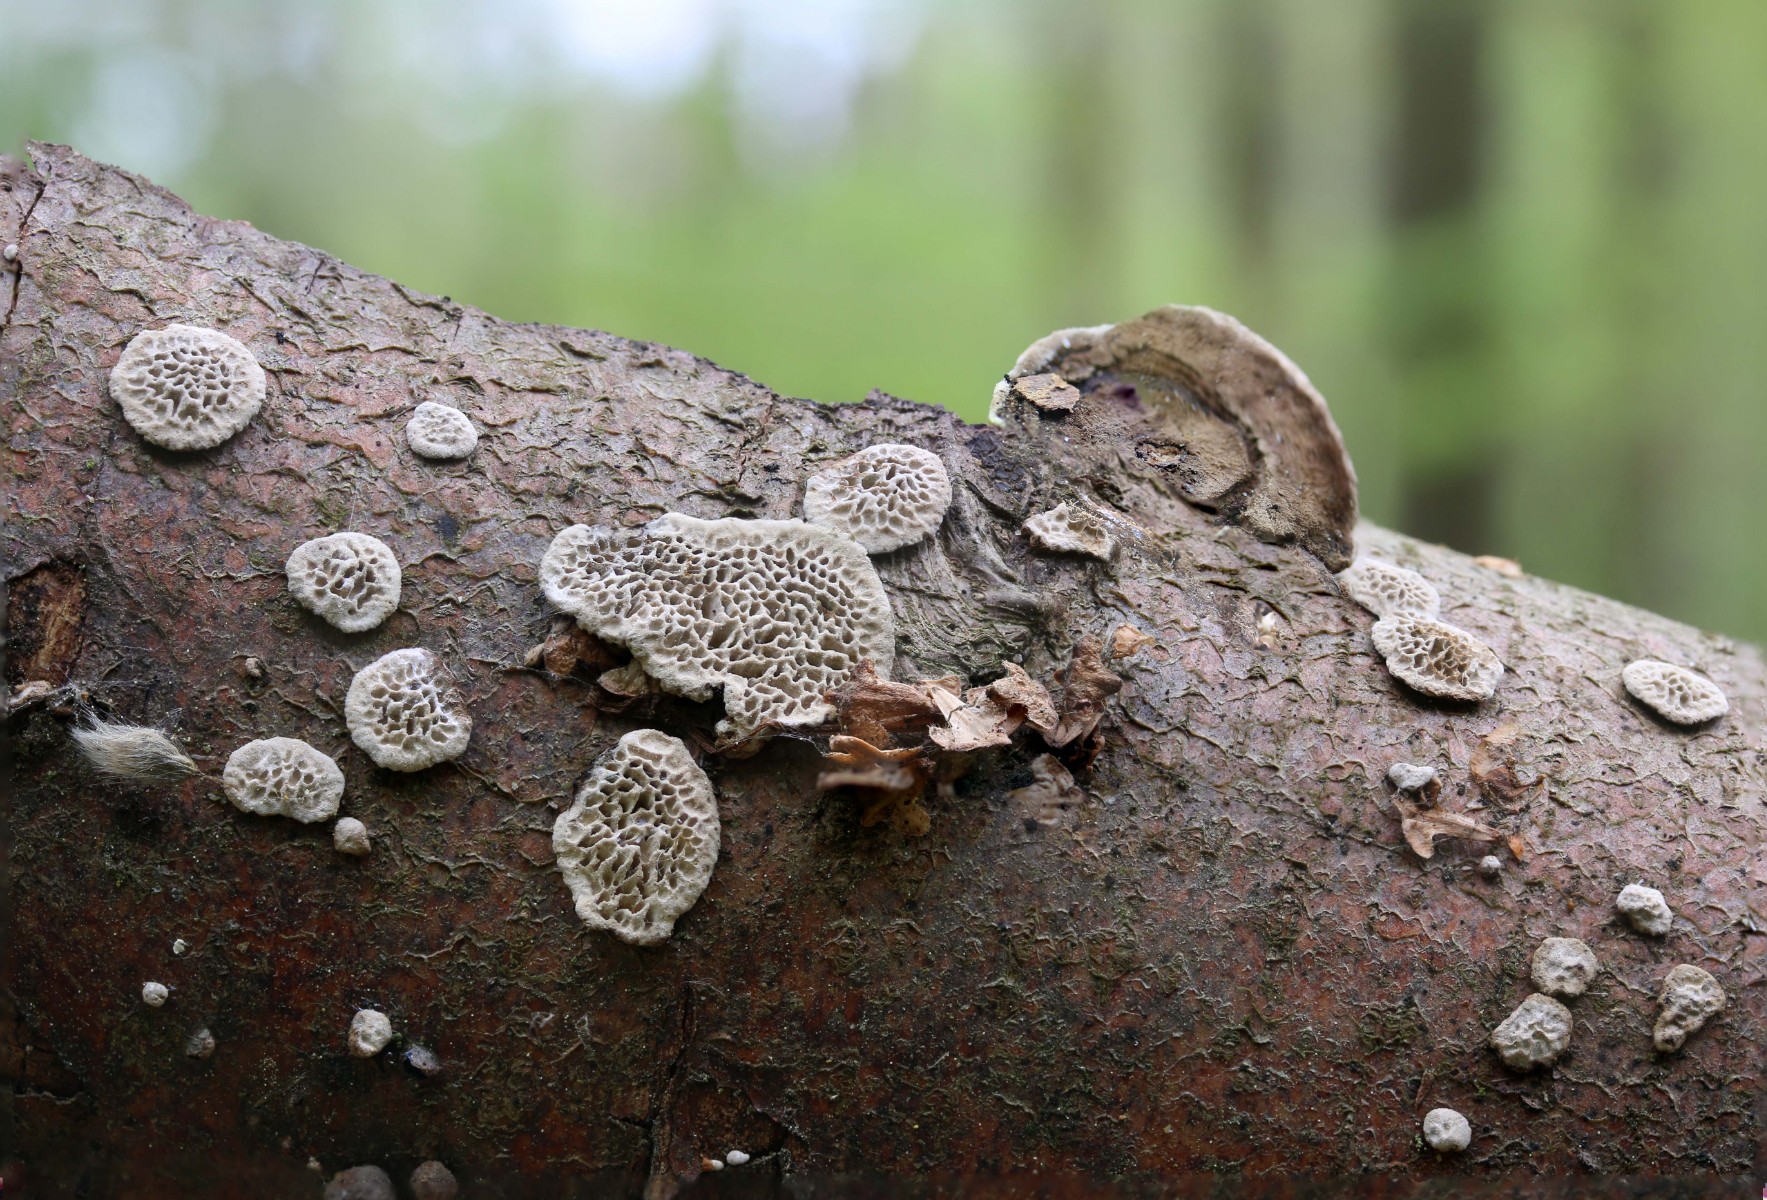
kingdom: Fungi
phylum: Basidiomycota
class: Agaricomycetes
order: Polyporales
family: Polyporaceae
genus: Podofomes
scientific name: Podofomes mollis
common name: blød begporesvamp
